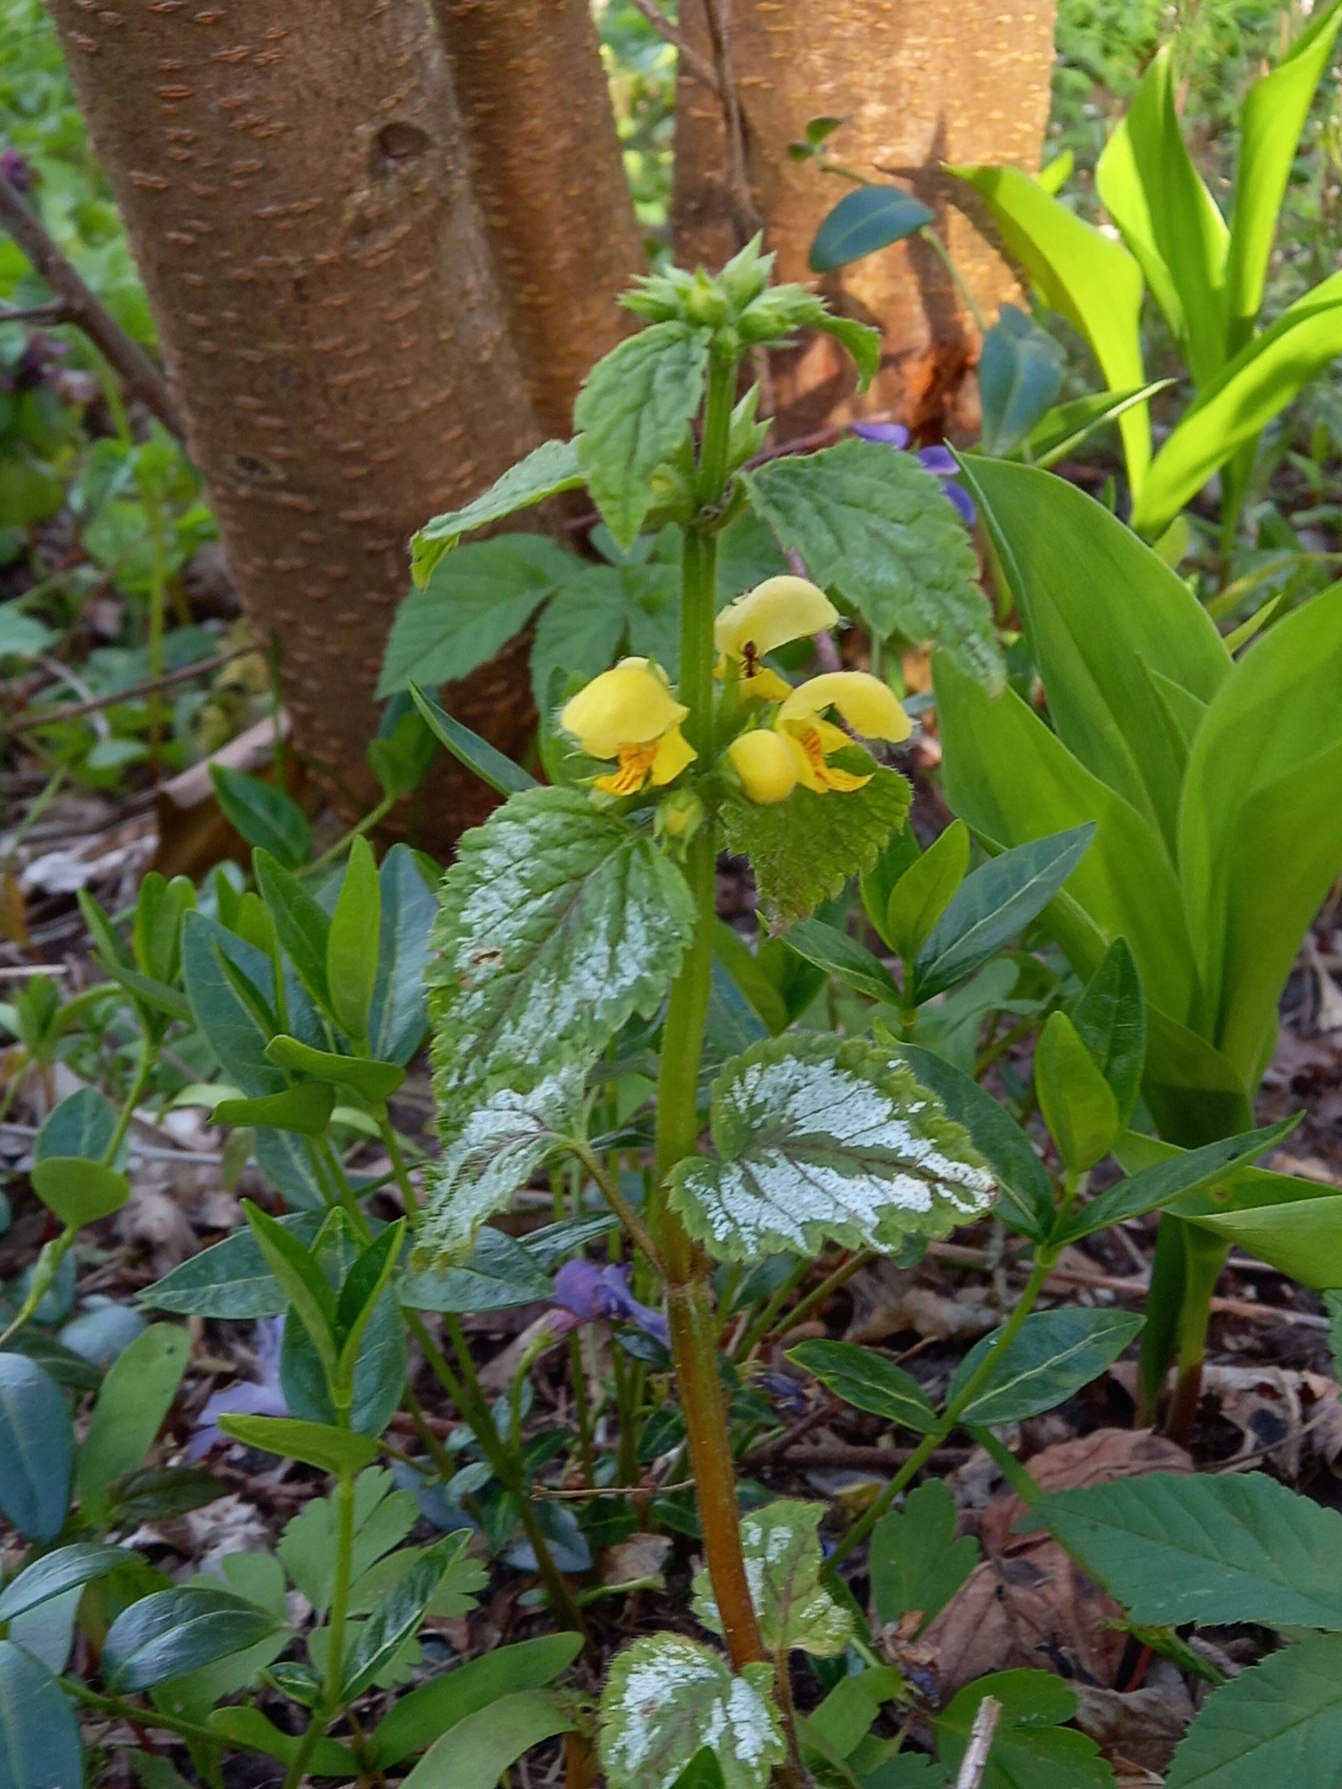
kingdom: Plantae
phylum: Tracheophyta
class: Magnoliopsida
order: Lamiales
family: Lamiaceae
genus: Lamium
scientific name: Lamium galeobdolon
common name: Have-guldnælde
